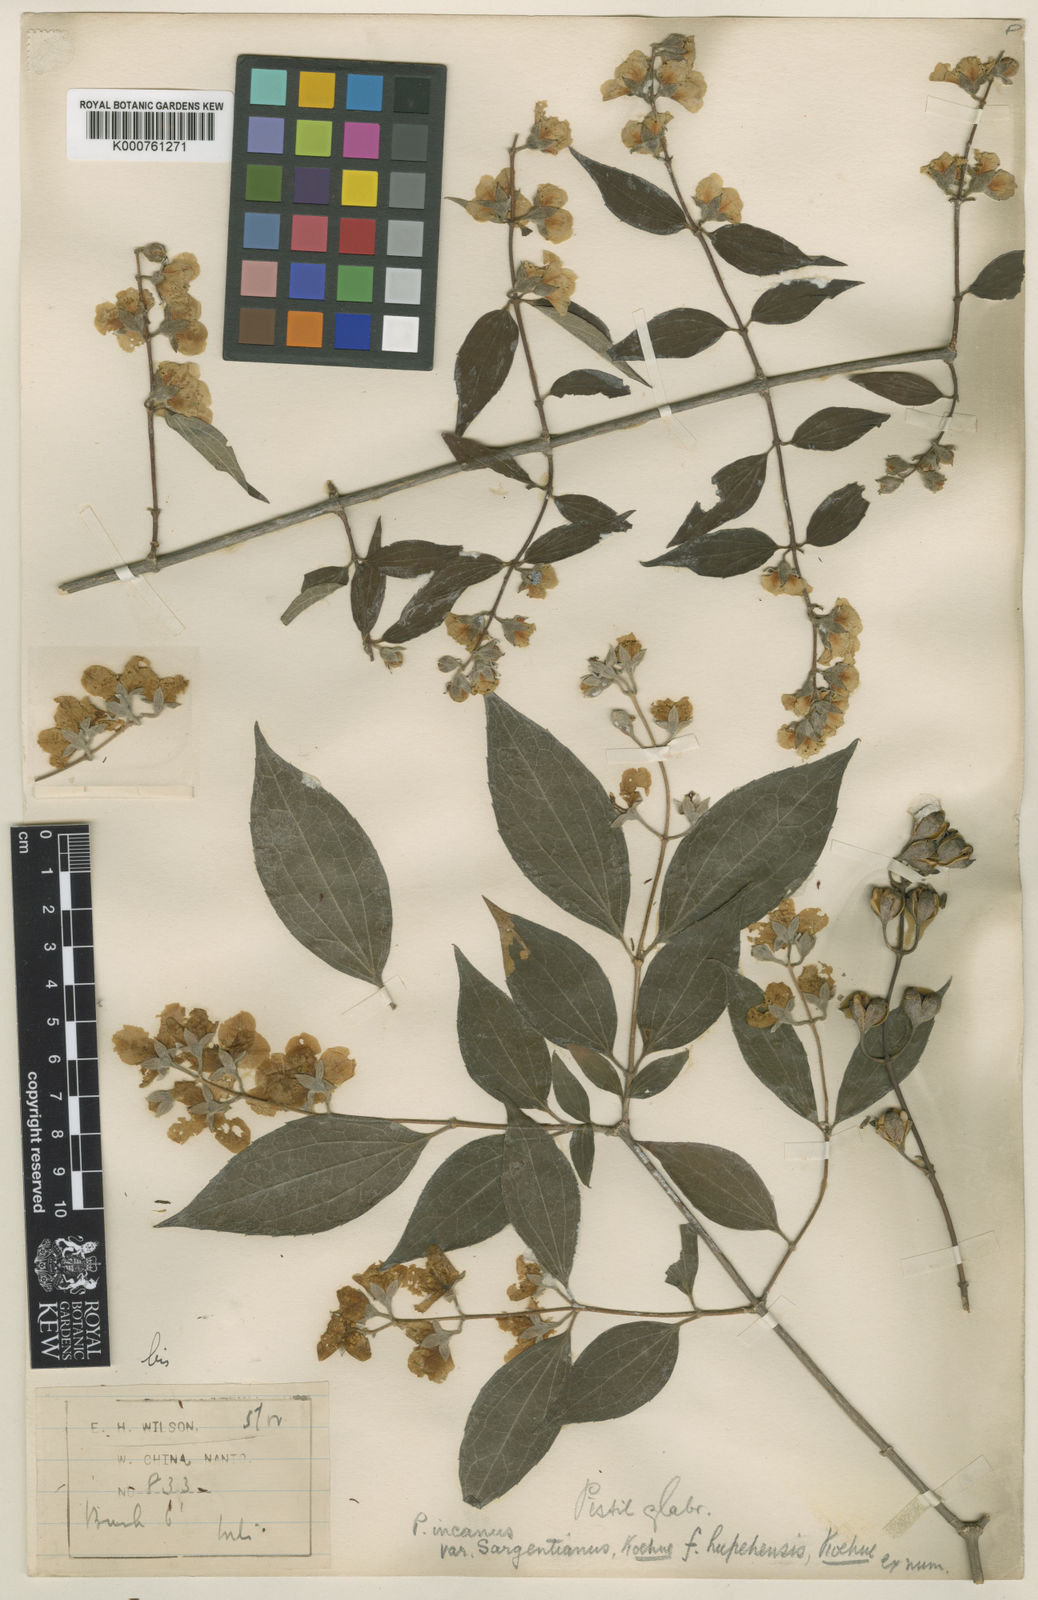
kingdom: Plantae
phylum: Tracheophyta
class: Magnoliopsida
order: Cornales
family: Hydrangeaceae
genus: Philadelphus
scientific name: Philadelphus
